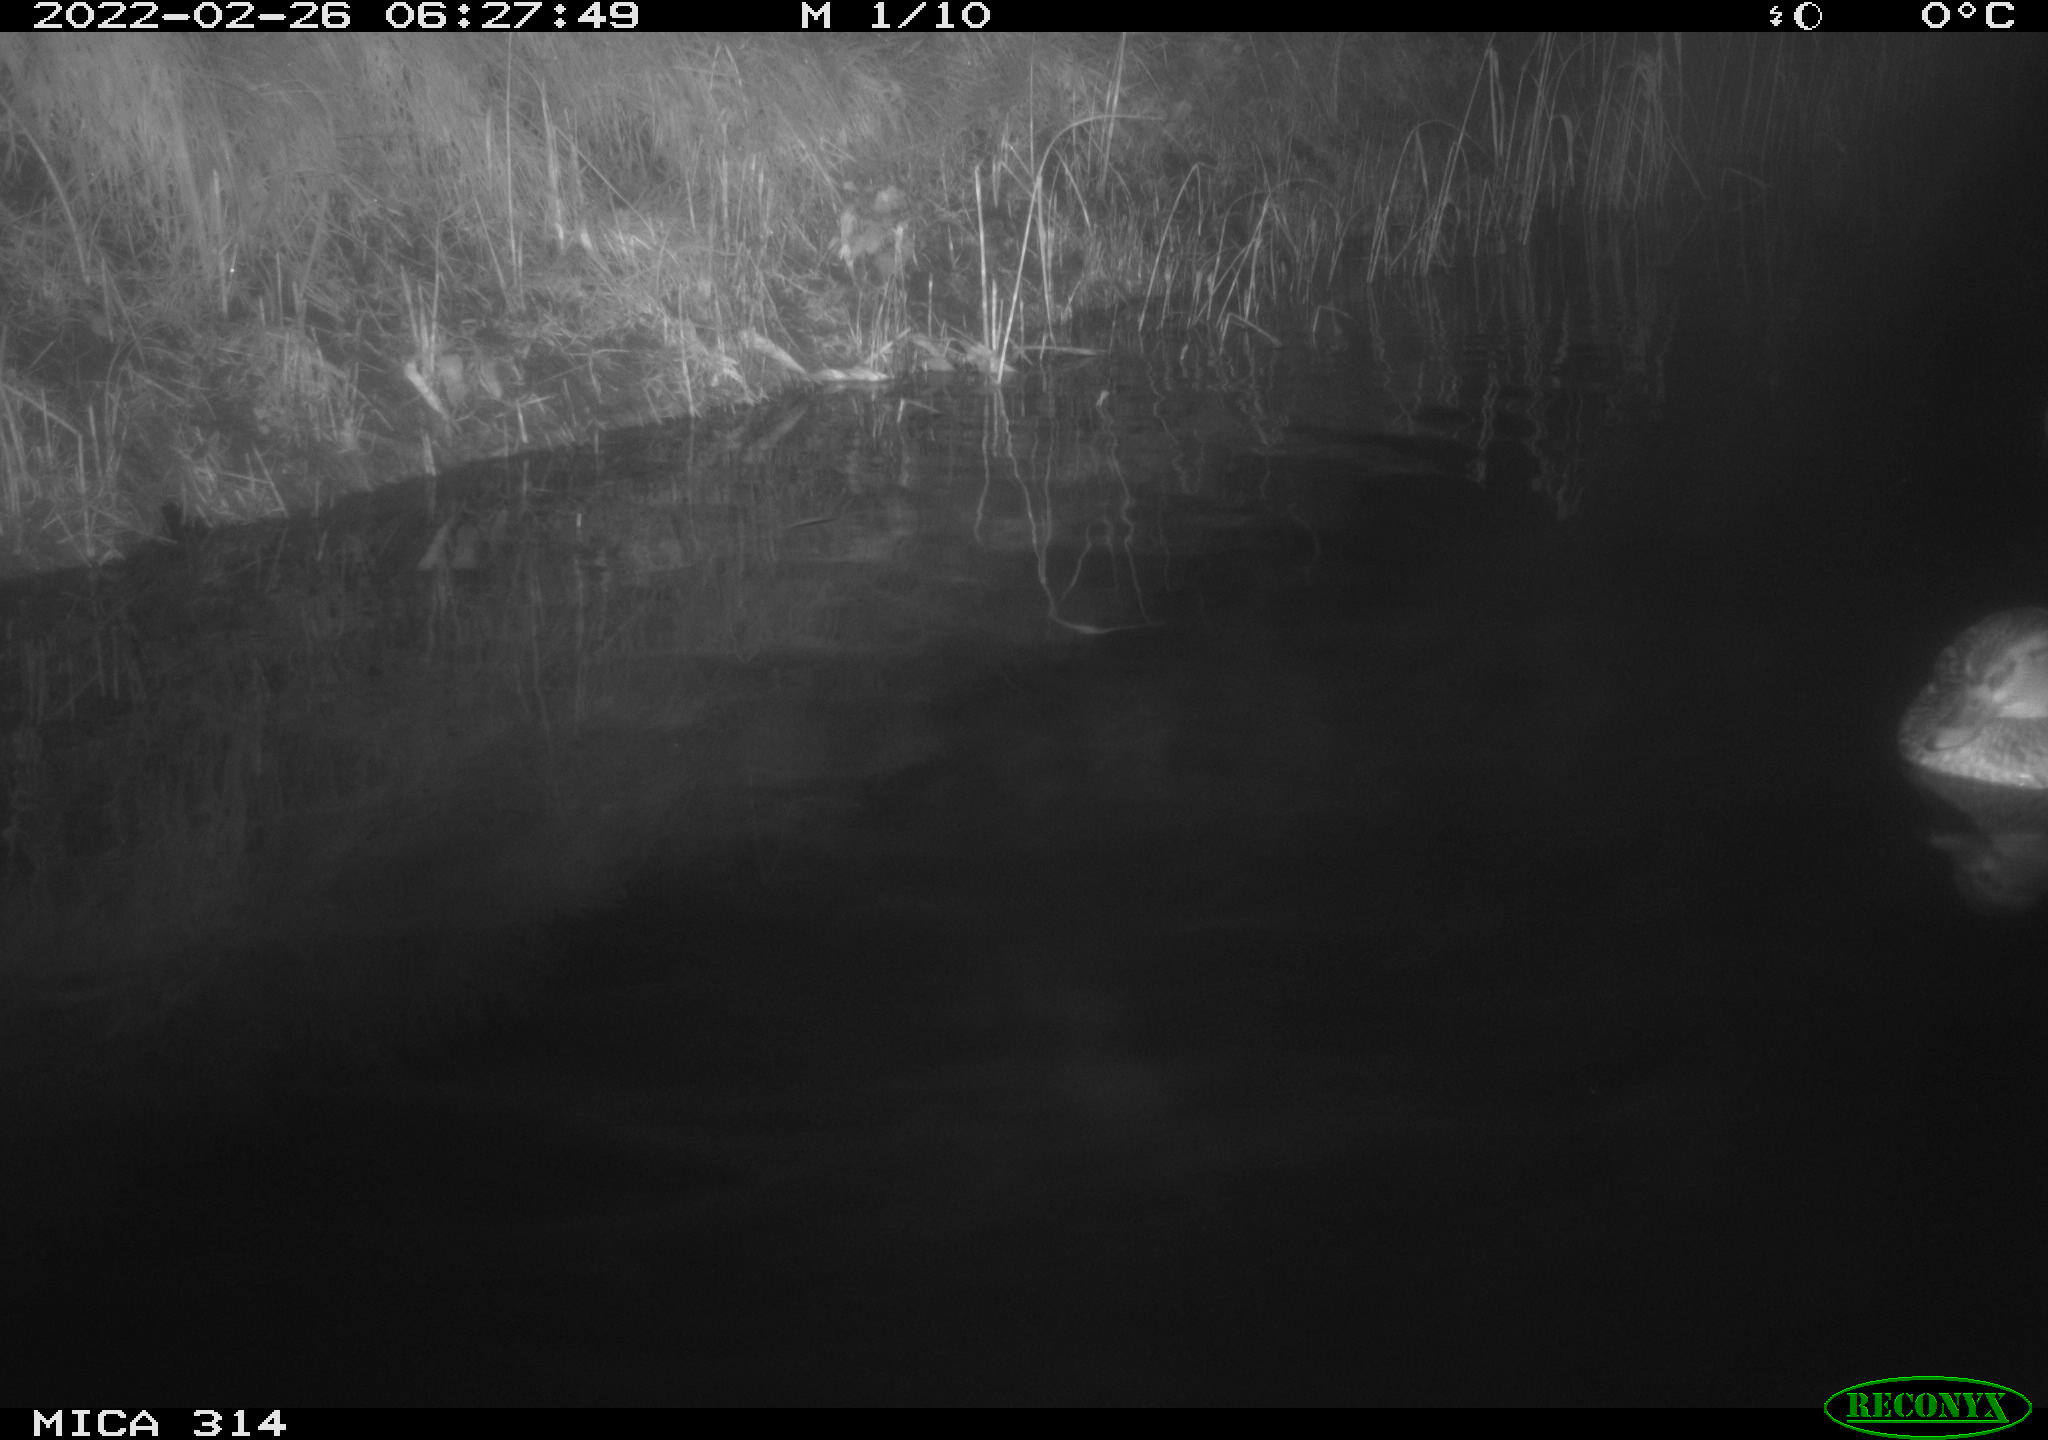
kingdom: Animalia
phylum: Chordata
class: Aves
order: Anseriformes
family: Anatidae
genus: Anas
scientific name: Anas platyrhynchos
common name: Mallard
